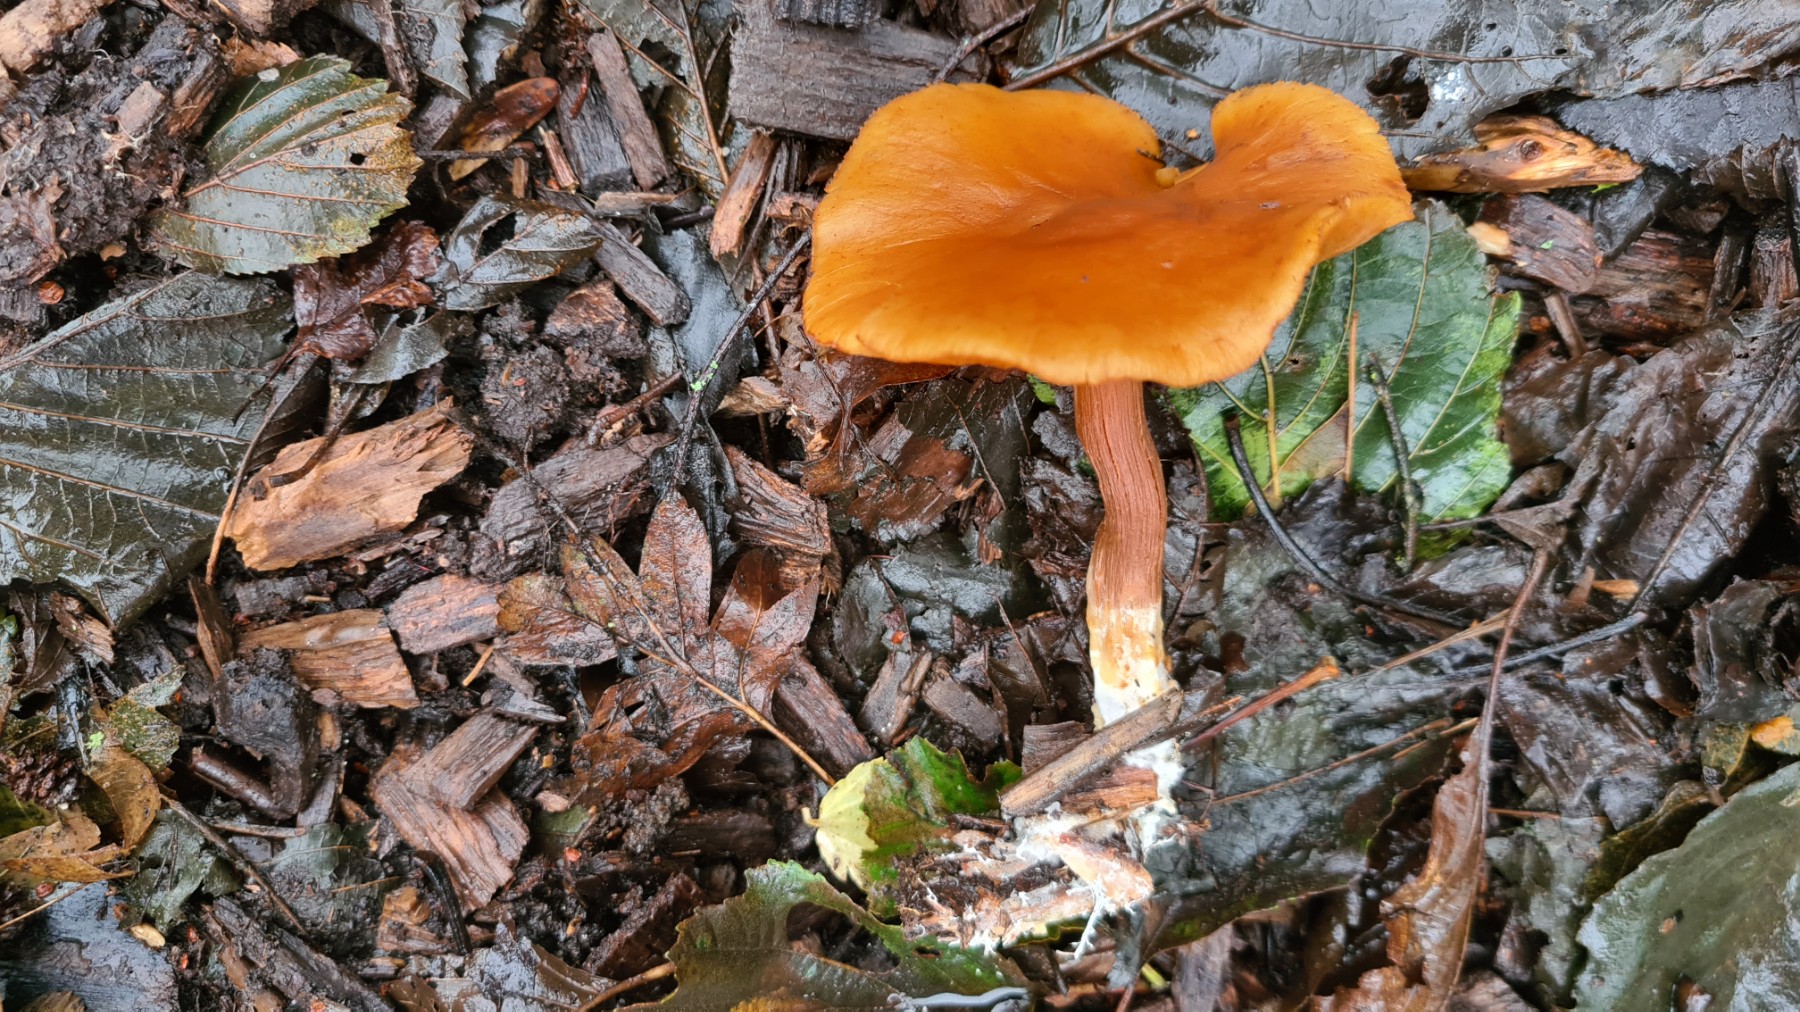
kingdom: Fungi
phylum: Basidiomycota
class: Agaricomycetes
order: Agaricales
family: Hymenogastraceae
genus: Gymnopilus
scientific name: Gymnopilus penetrans
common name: plettet flammehat
